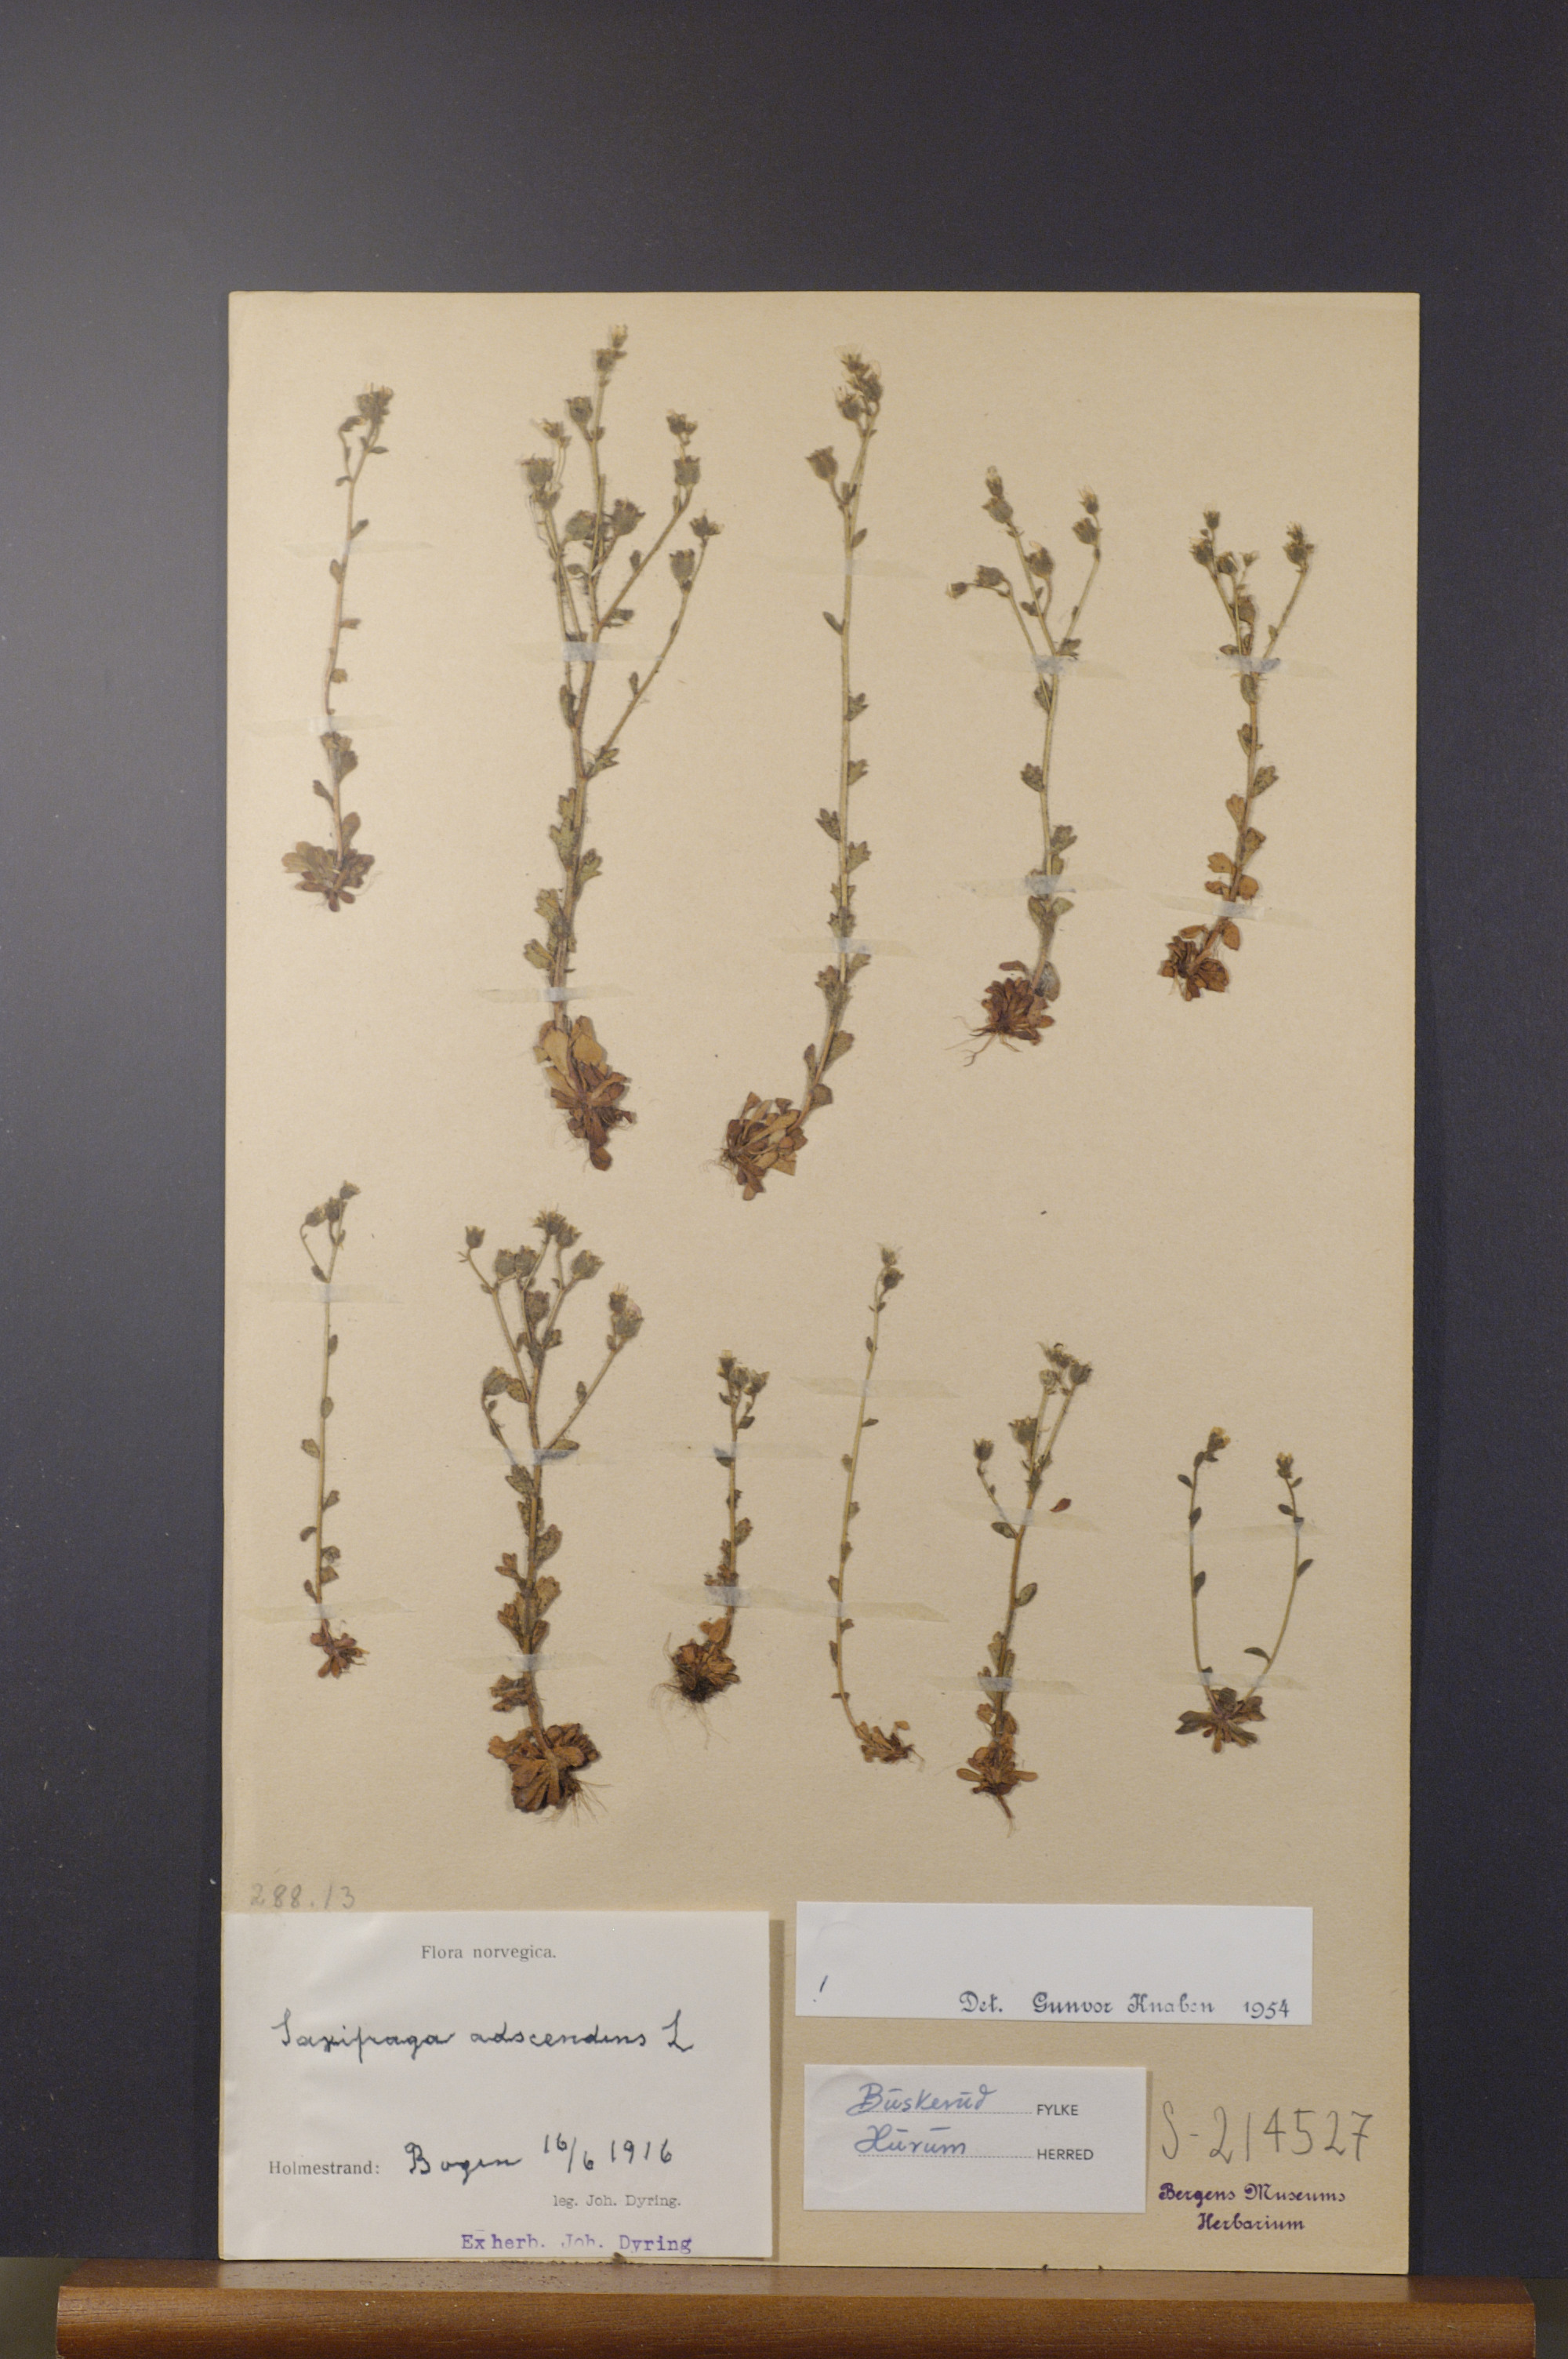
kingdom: Plantae
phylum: Tracheophyta
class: Magnoliopsida
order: Saxifragales
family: Saxifragaceae
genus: Saxifraga
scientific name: Saxifraga adscendens
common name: Ascending saxifrage
